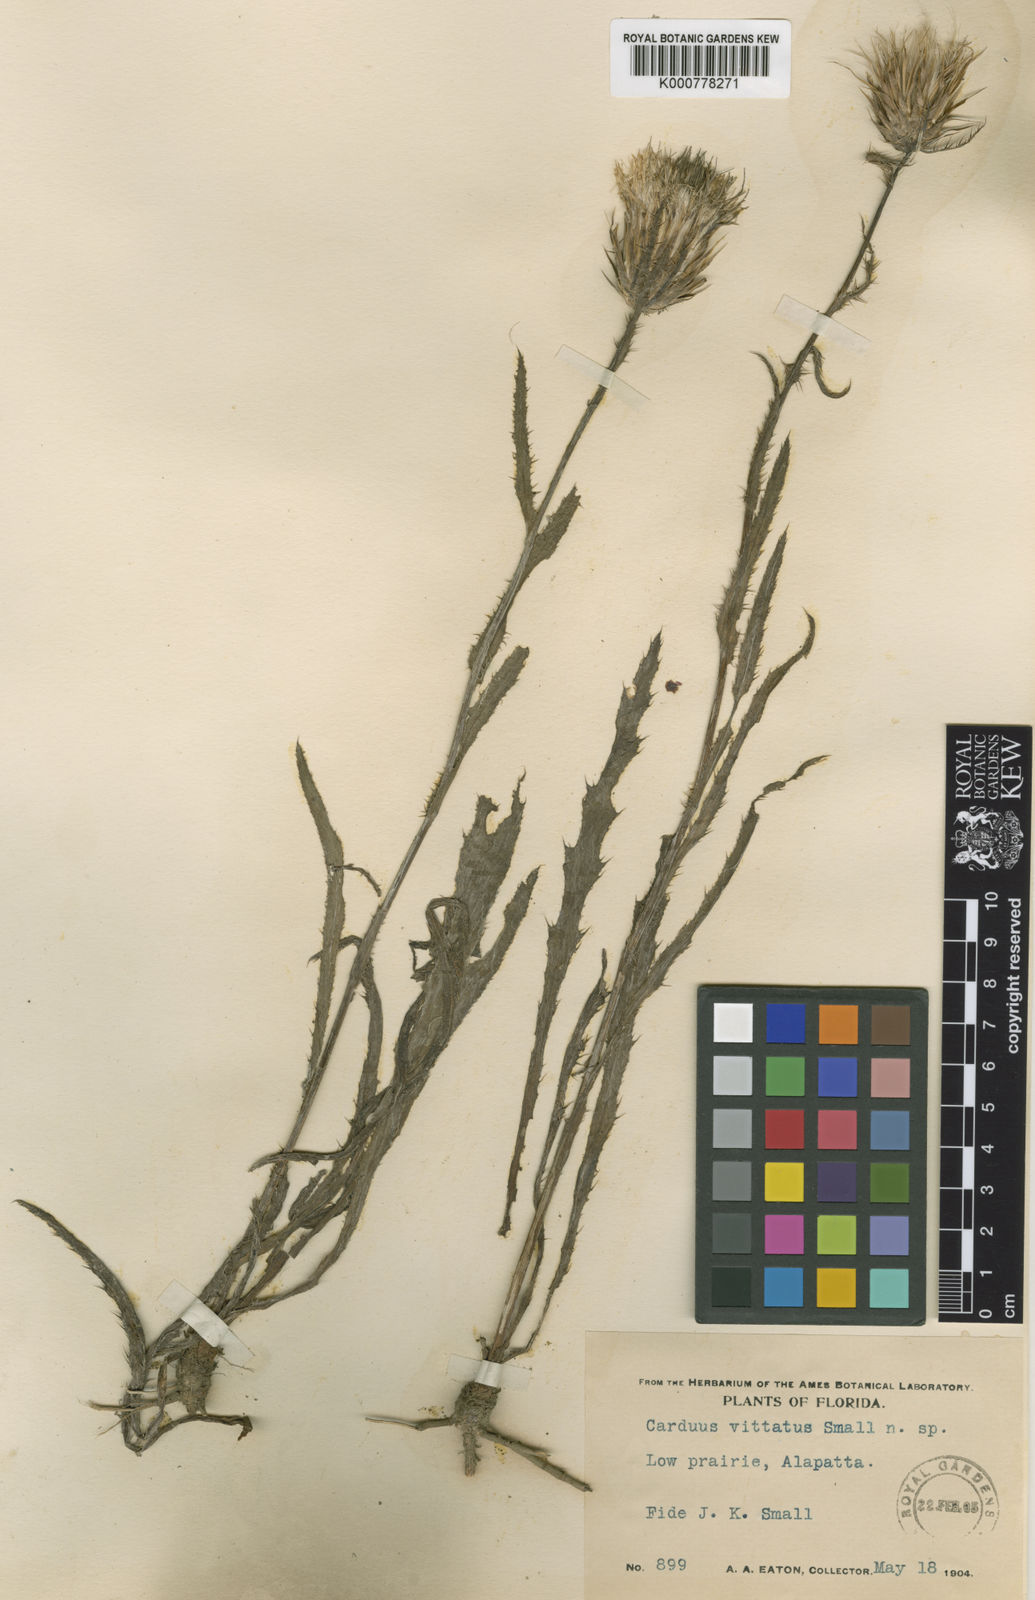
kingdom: Plantae
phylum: Tracheophyta
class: Magnoliopsida
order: Asterales
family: Asteraceae
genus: Cirsium
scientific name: Cirsium horridulum
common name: Bristly thistle
